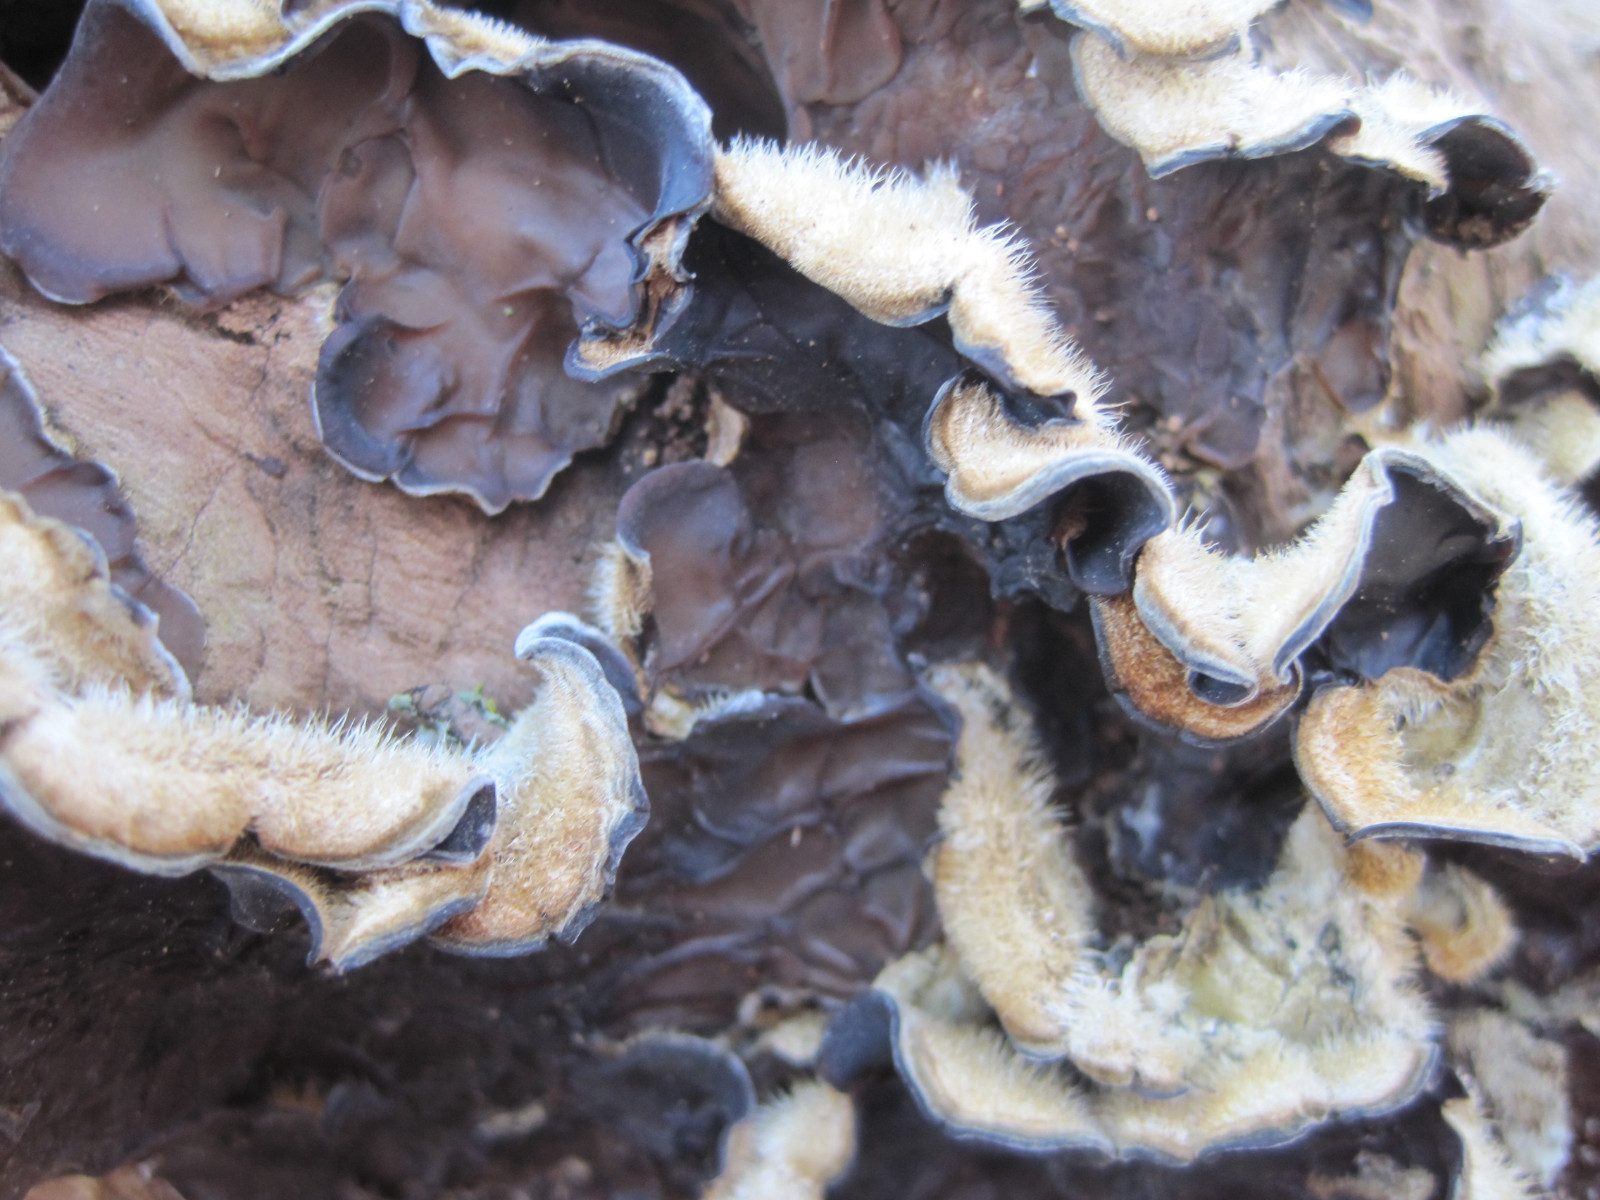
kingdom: Fungi
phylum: Basidiomycota
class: Agaricomycetes
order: Auriculariales
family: Auriculariaceae
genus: Auricularia
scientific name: Auricularia mesenterica
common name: håret judasøre
